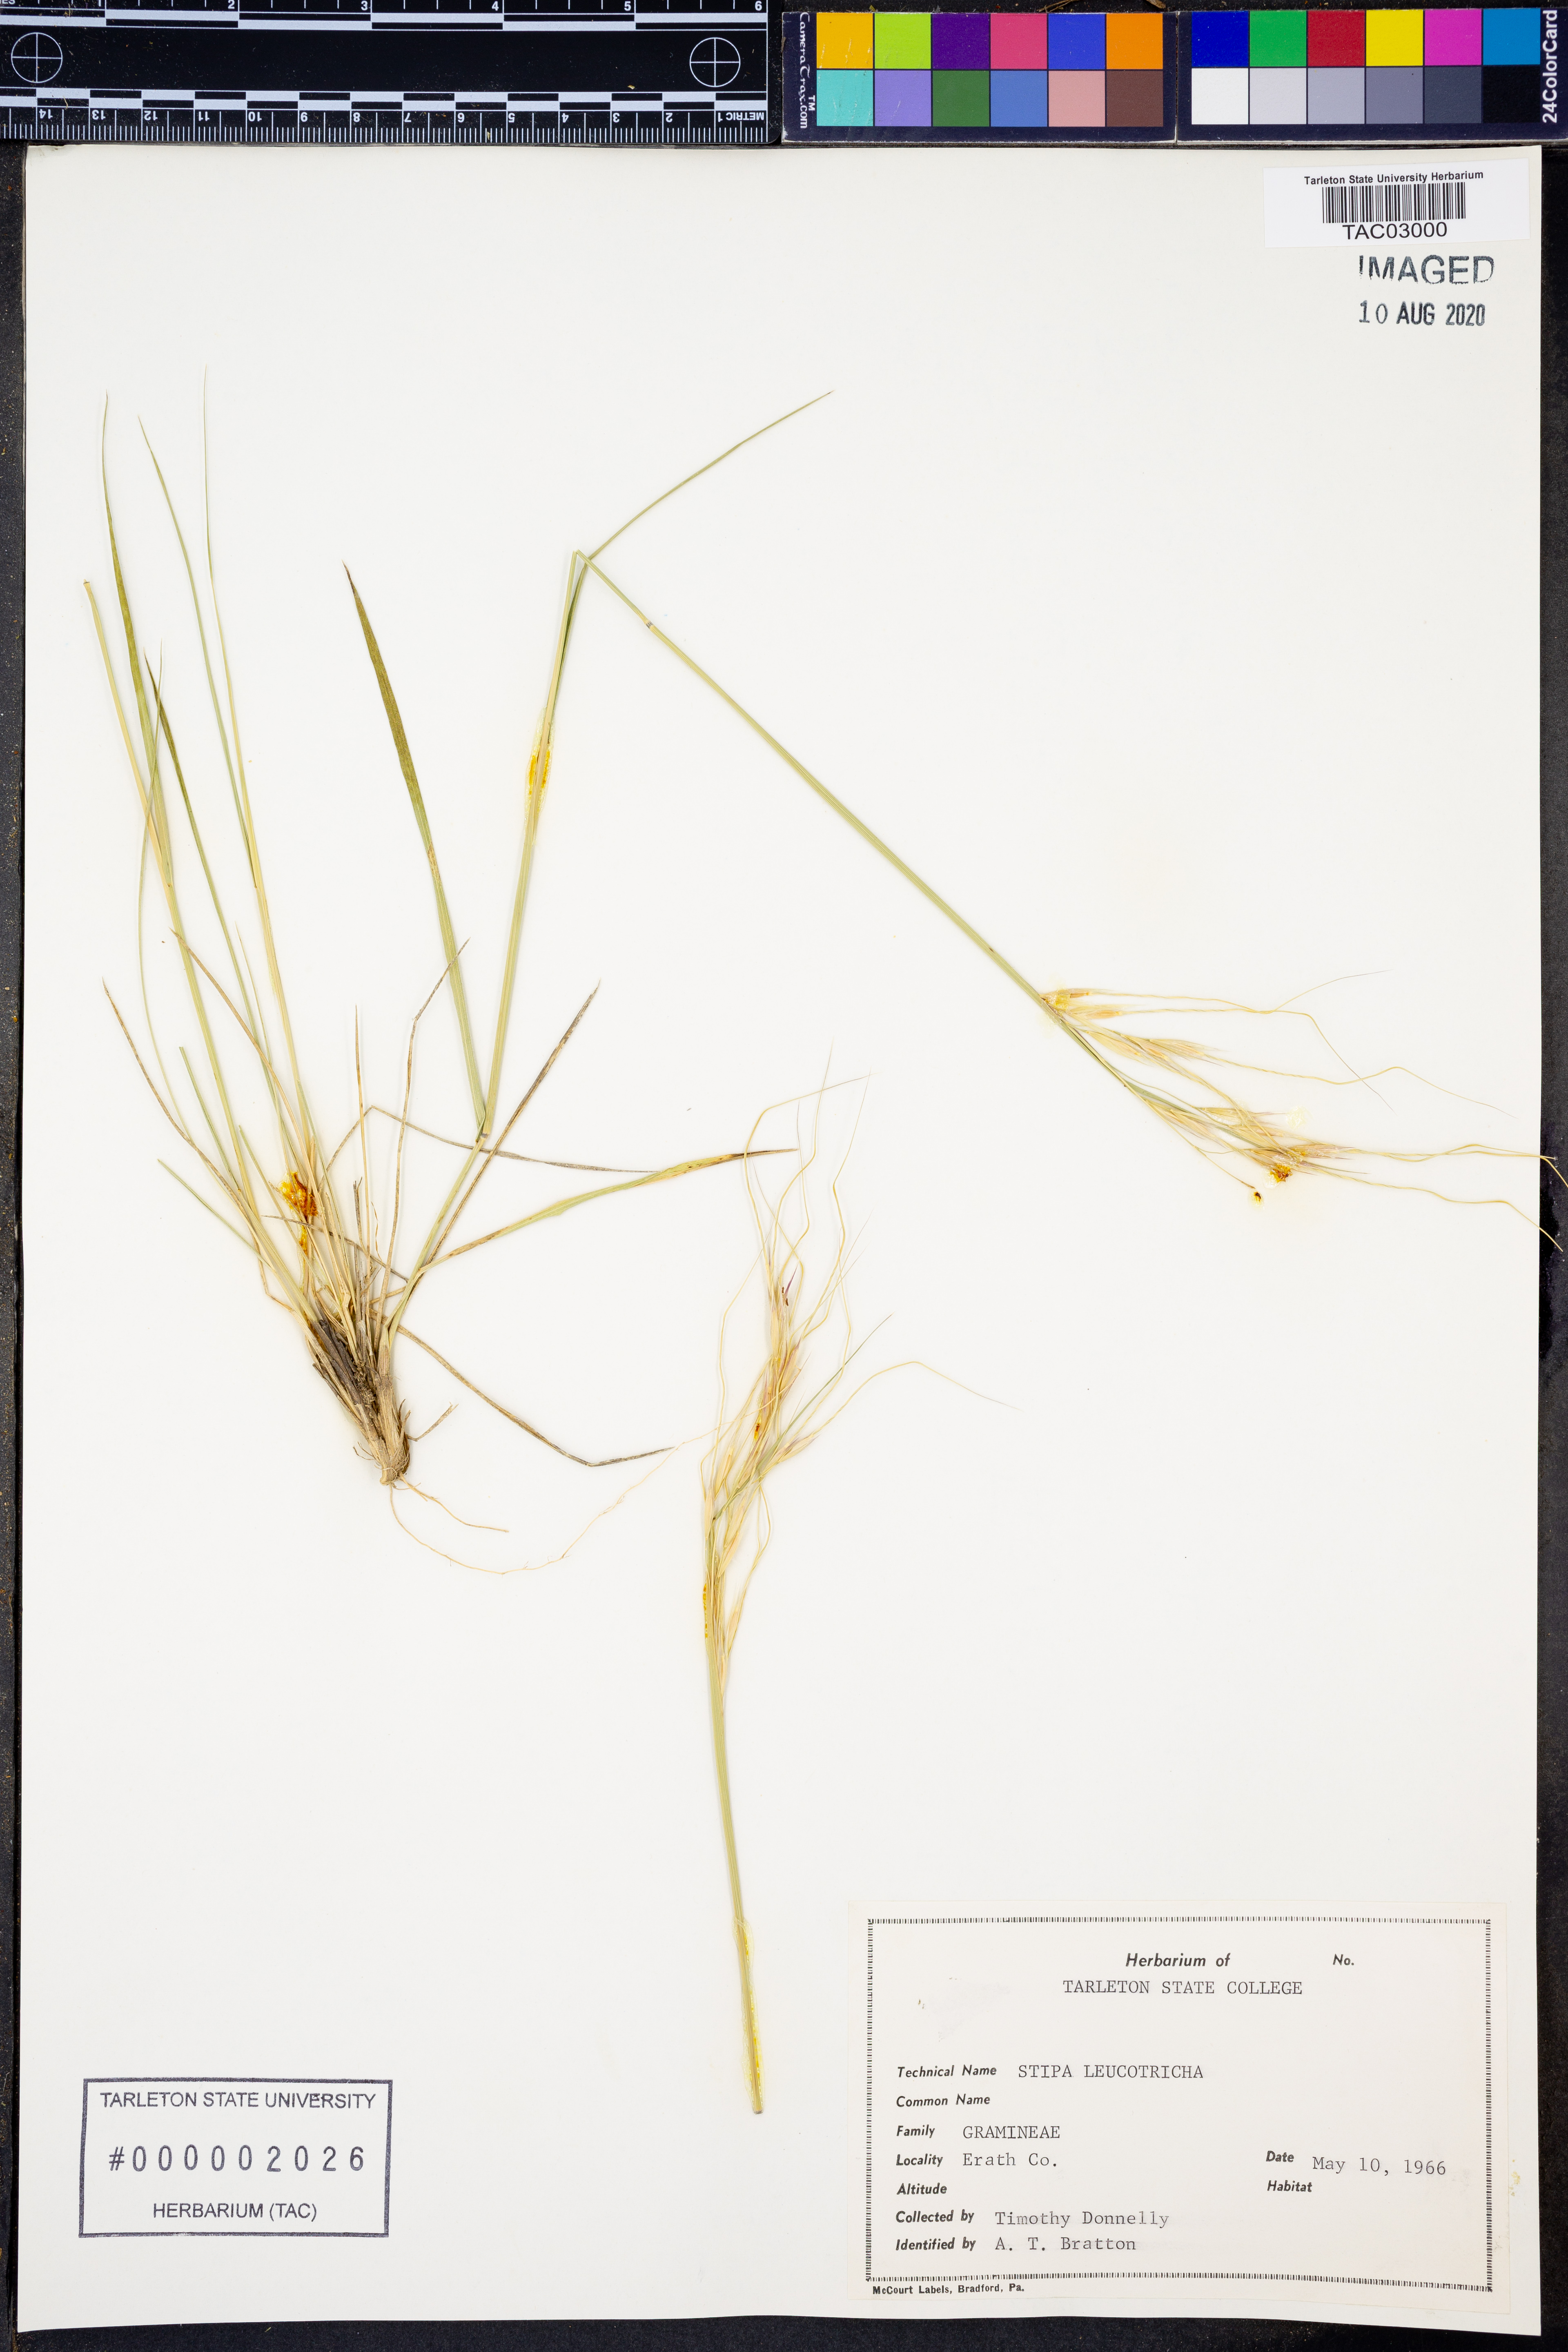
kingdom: Plantae
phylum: Tracheophyta
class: Liliopsida
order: Poales
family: Poaceae
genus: Nassella
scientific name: Nassella leucotricha
